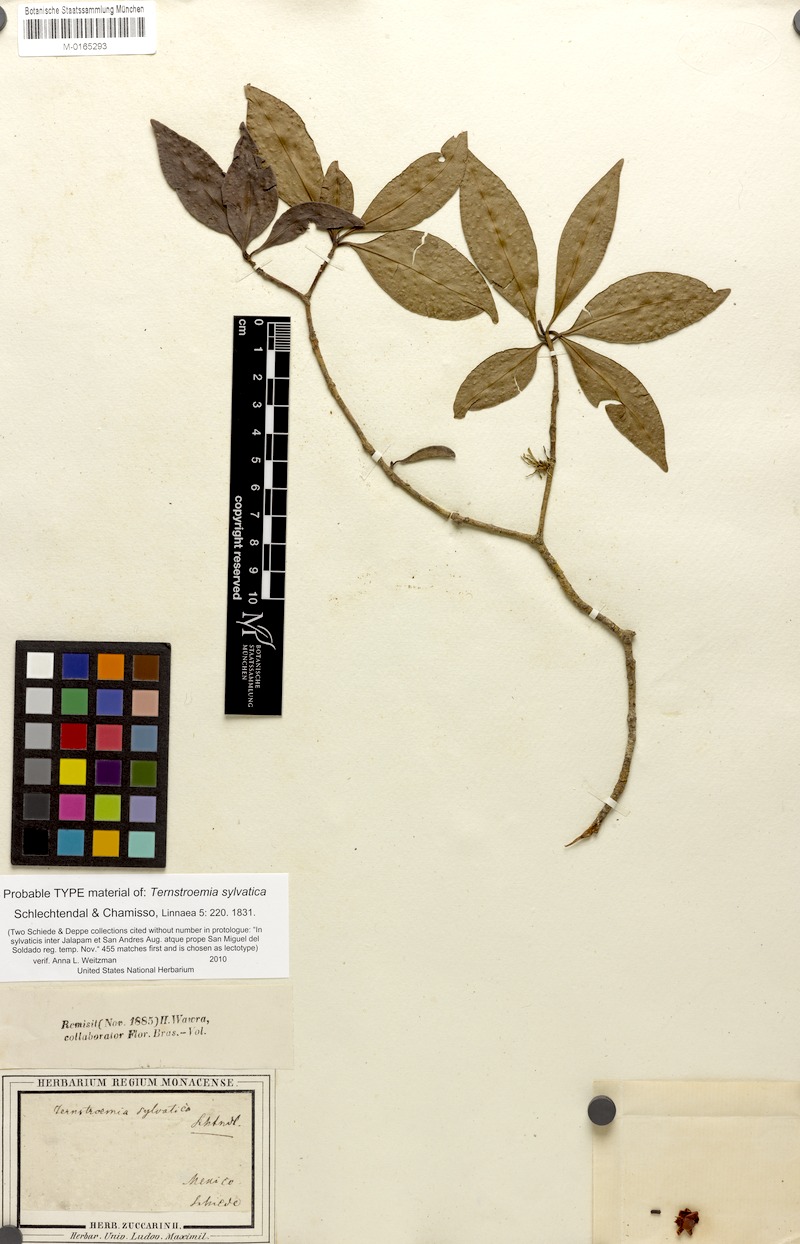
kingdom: Plantae
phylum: Tracheophyta
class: Magnoliopsida
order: Ericales
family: Pentaphylacaceae
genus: Ternstroemia
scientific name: Ternstroemia sylvatica
